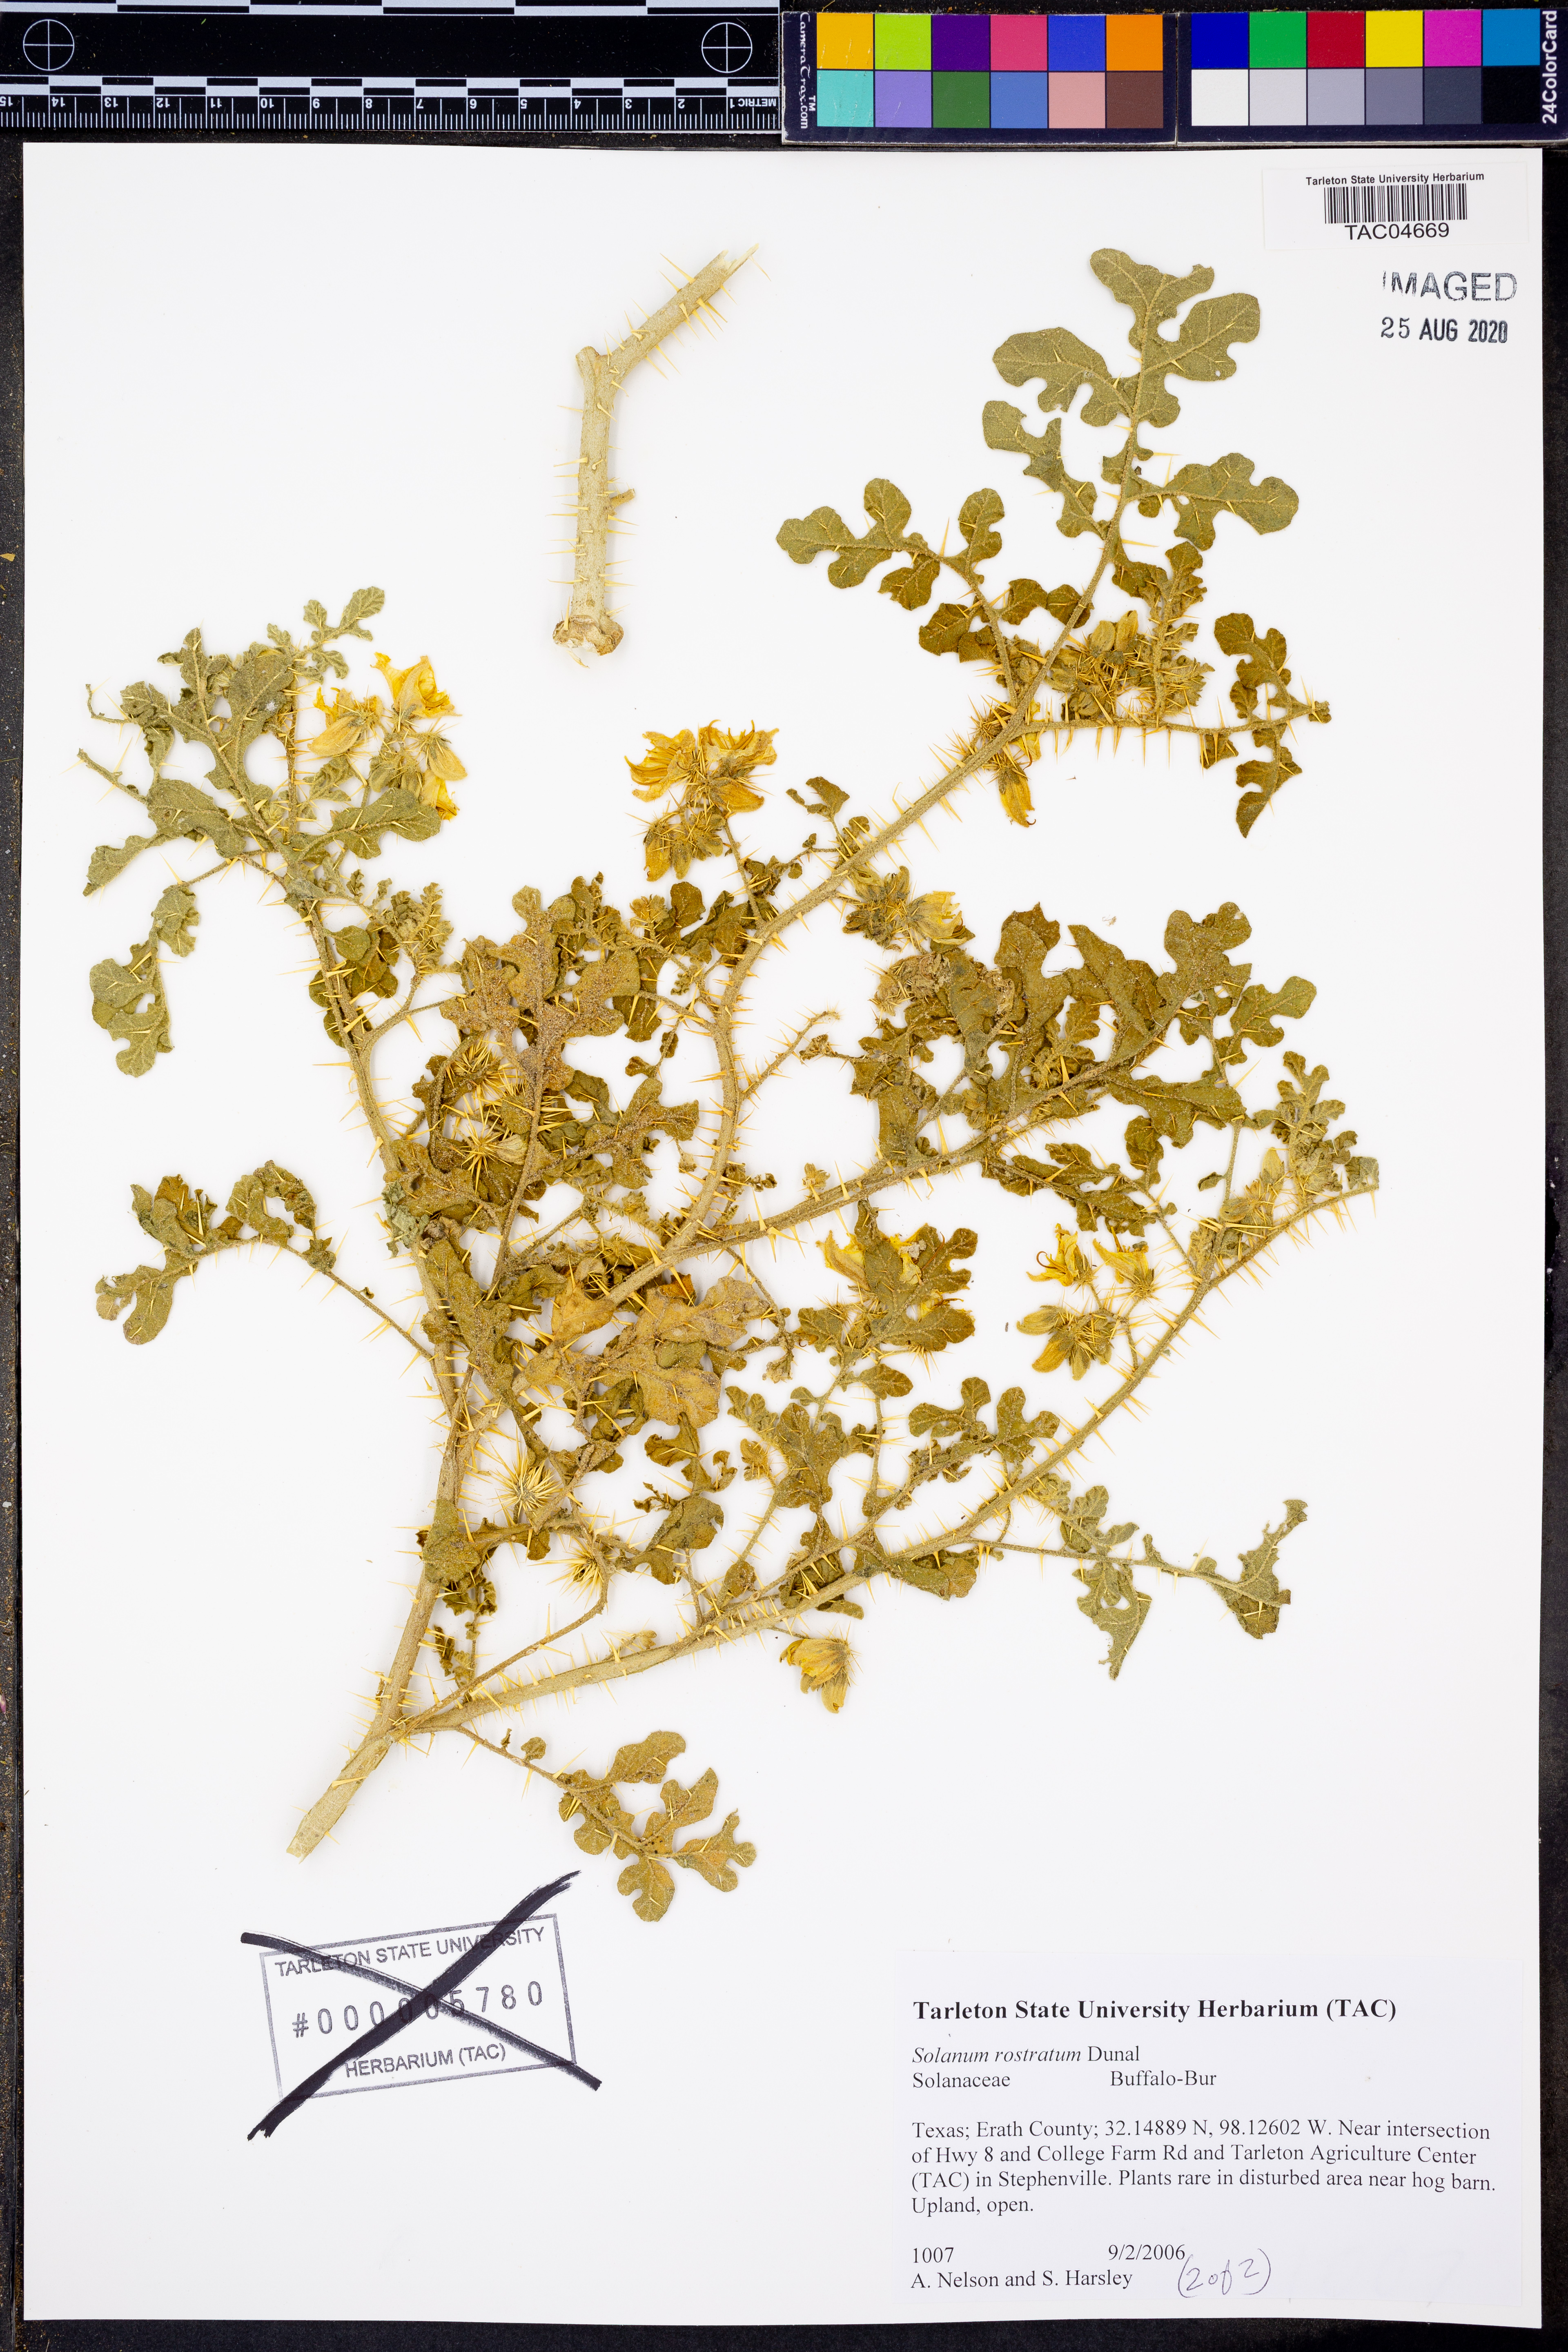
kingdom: Plantae
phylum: Tracheophyta
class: Magnoliopsida
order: Solanales
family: Solanaceae
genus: Solanum
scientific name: Solanum angustifolium
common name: Buffalobur nightshade
